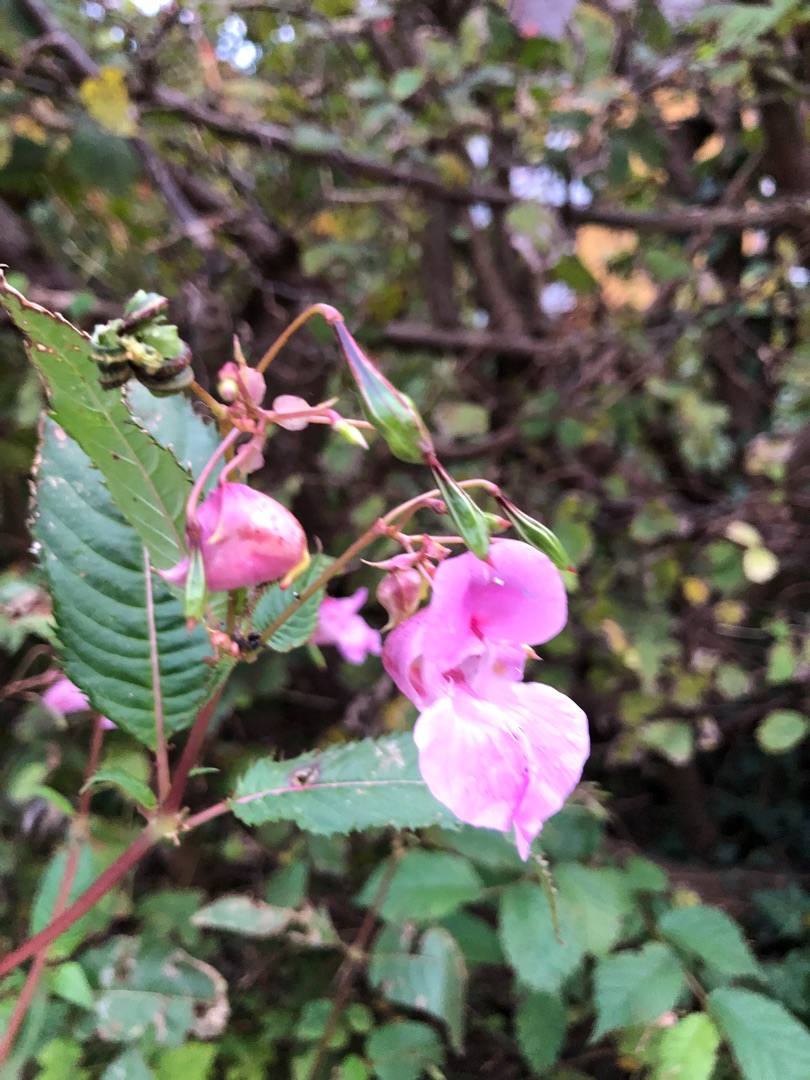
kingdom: Plantae
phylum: Tracheophyta
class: Magnoliopsida
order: Ericales
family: Balsaminaceae
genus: Impatiens
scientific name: Impatiens glandulifera
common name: Kæmpe-balsamin
